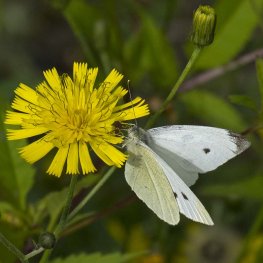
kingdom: Animalia
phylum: Arthropoda
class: Insecta
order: Lepidoptera
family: Pieridae
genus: Pieris
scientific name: Pieris rapae
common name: Cabbage White
